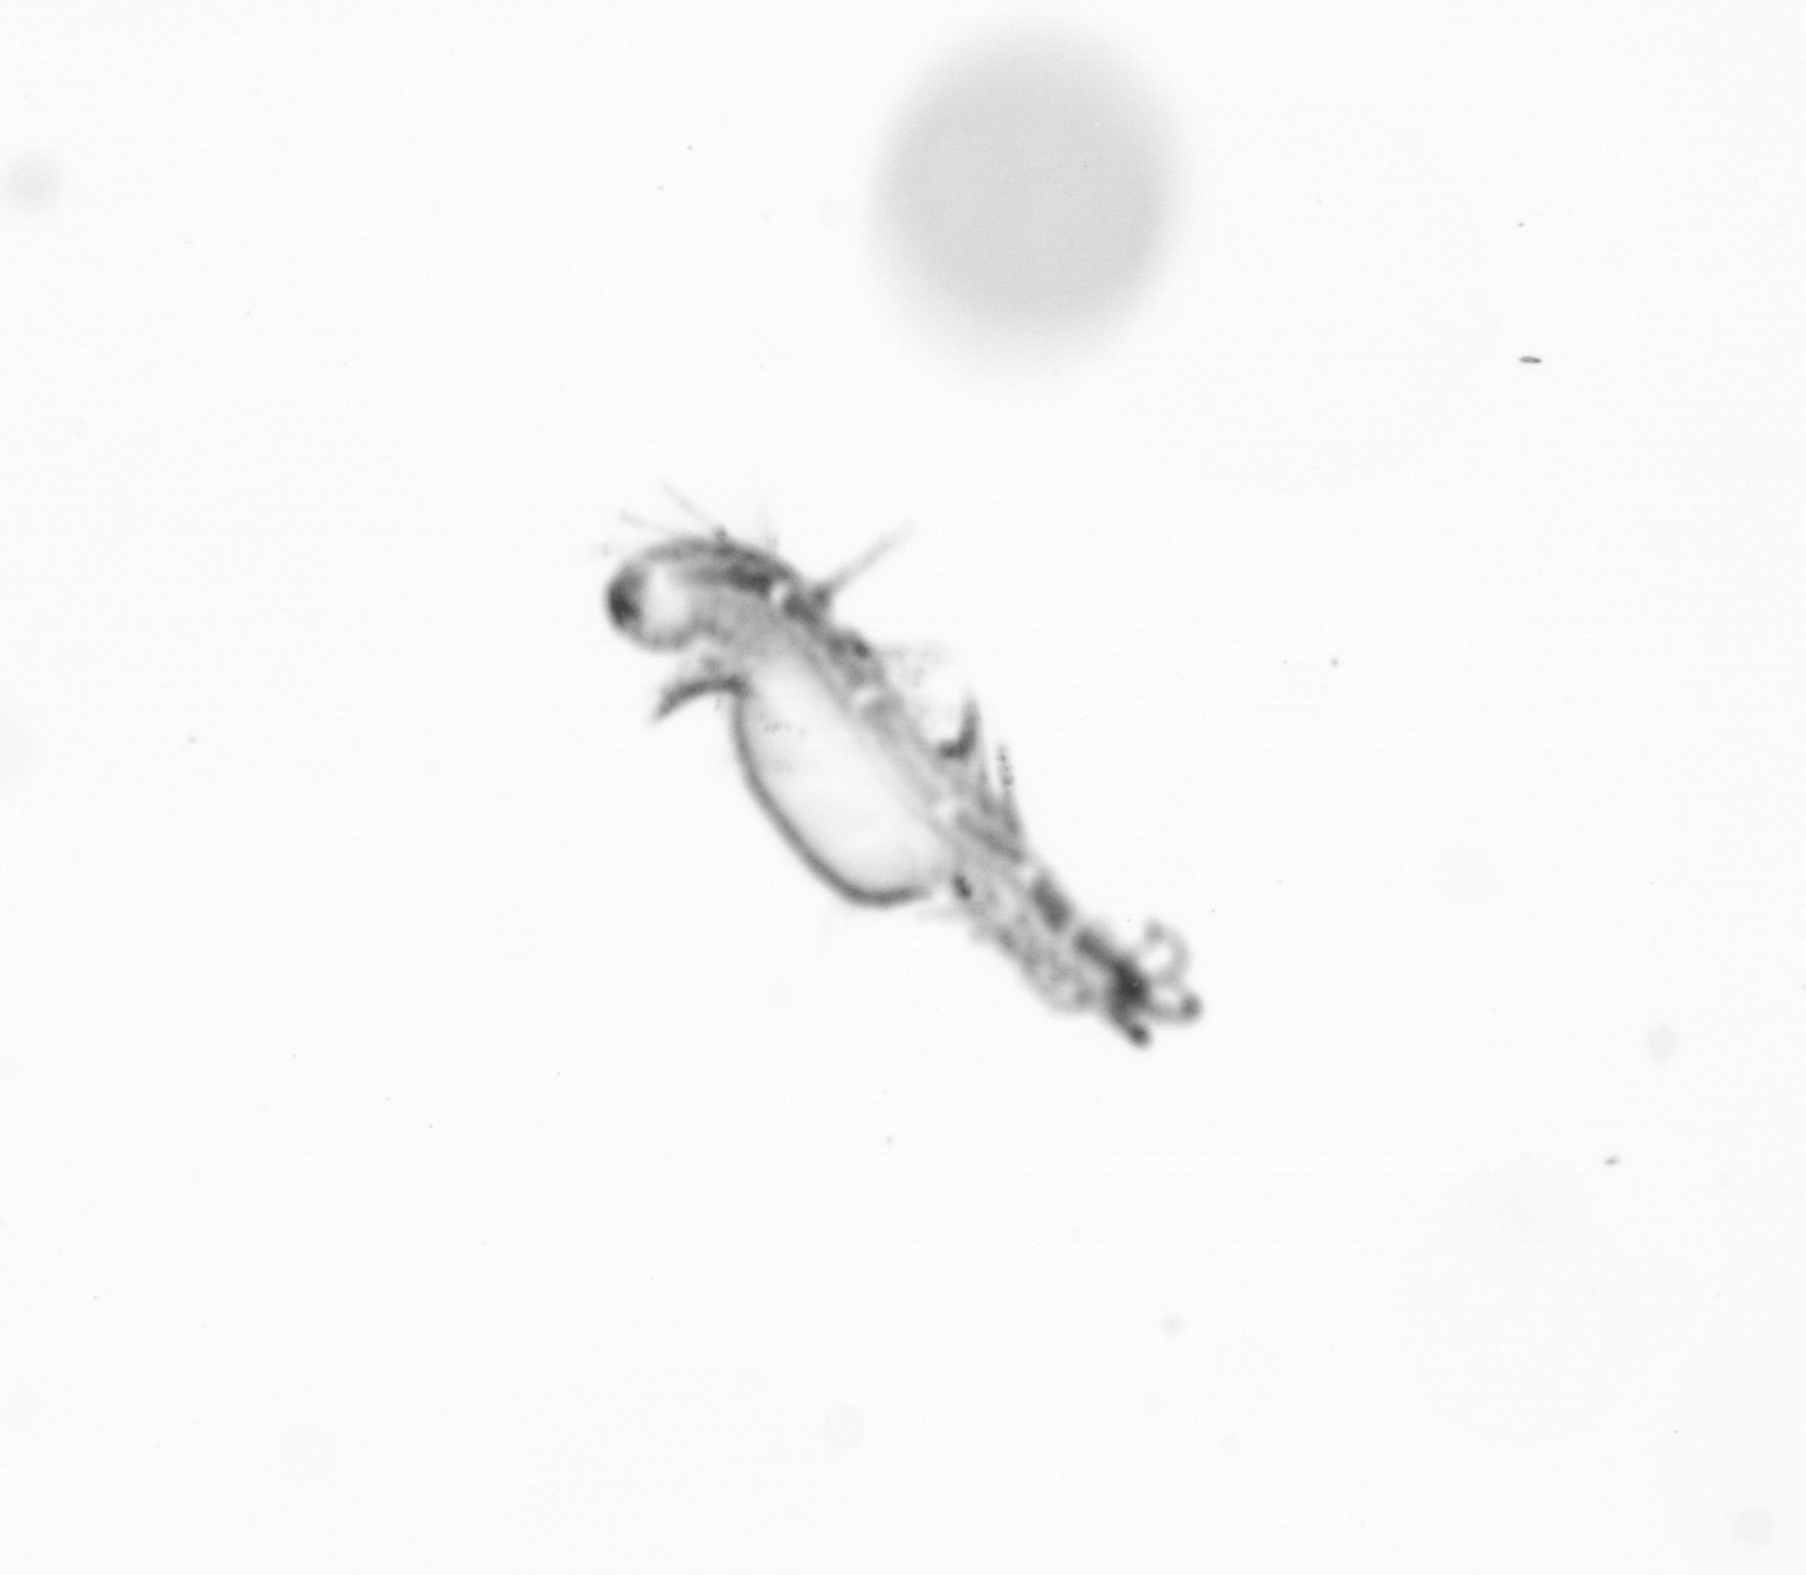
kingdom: Animalia
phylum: Annelida
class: Polychaeta
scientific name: Polychaeta
